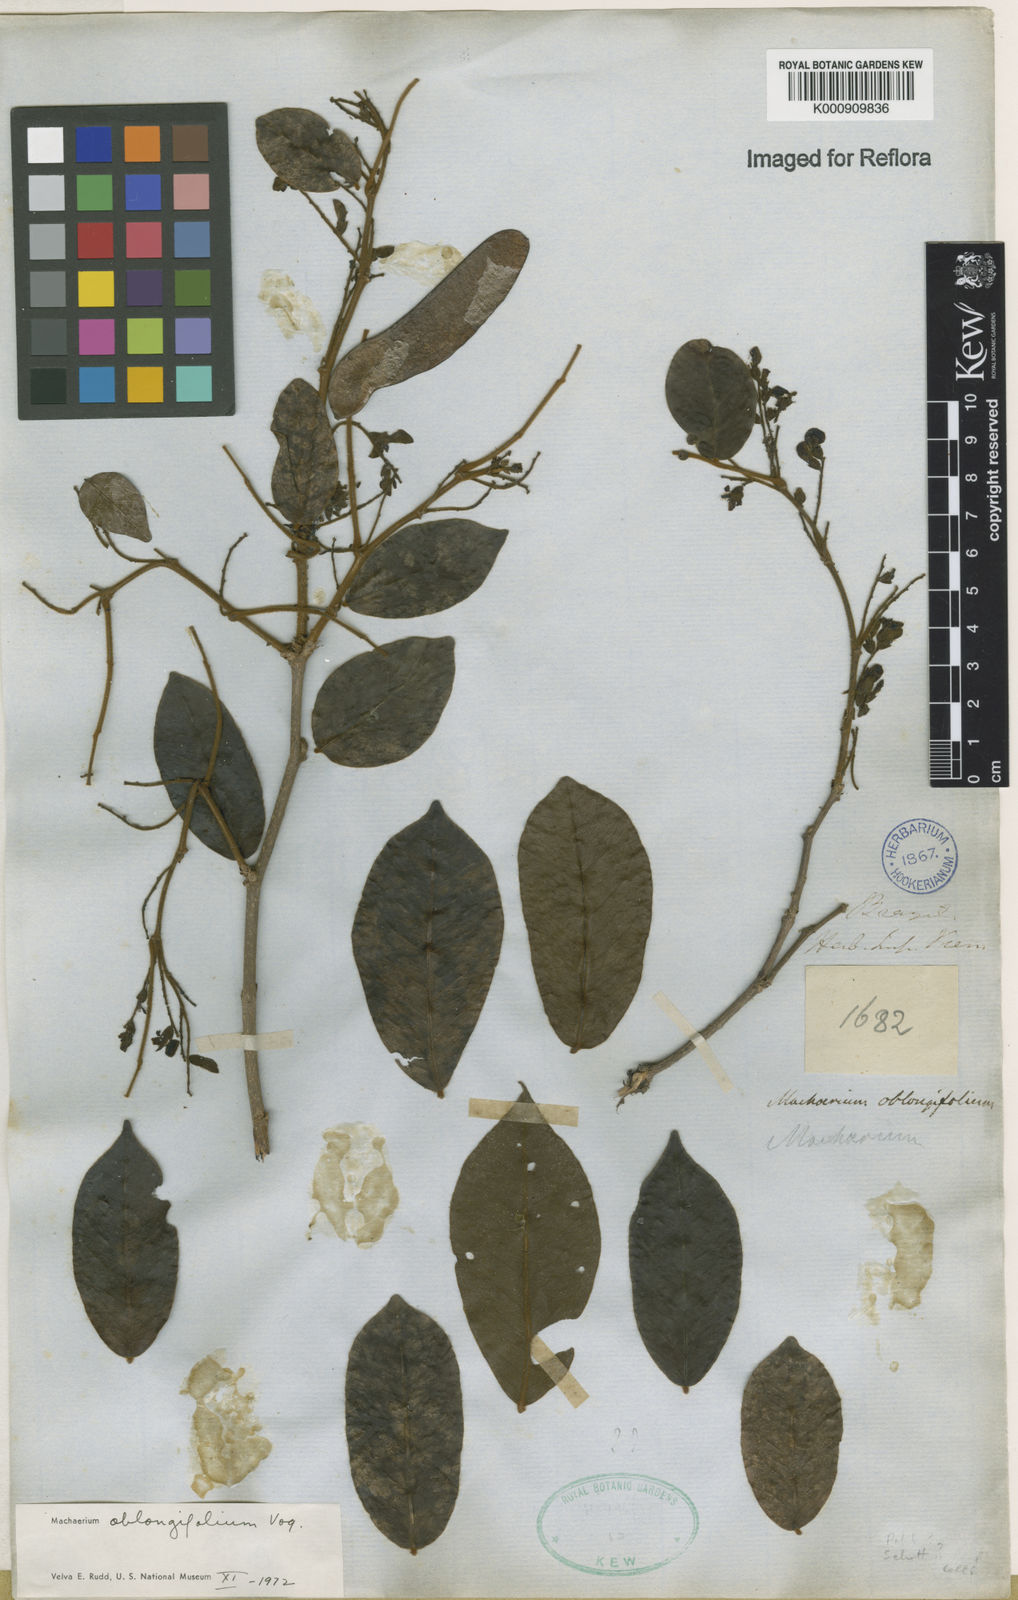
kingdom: Plantae
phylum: Tracheophyta
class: Magnoliopsida
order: Fabales
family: Fabaceae
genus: Machaerium
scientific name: Machaerium oblongifolium
